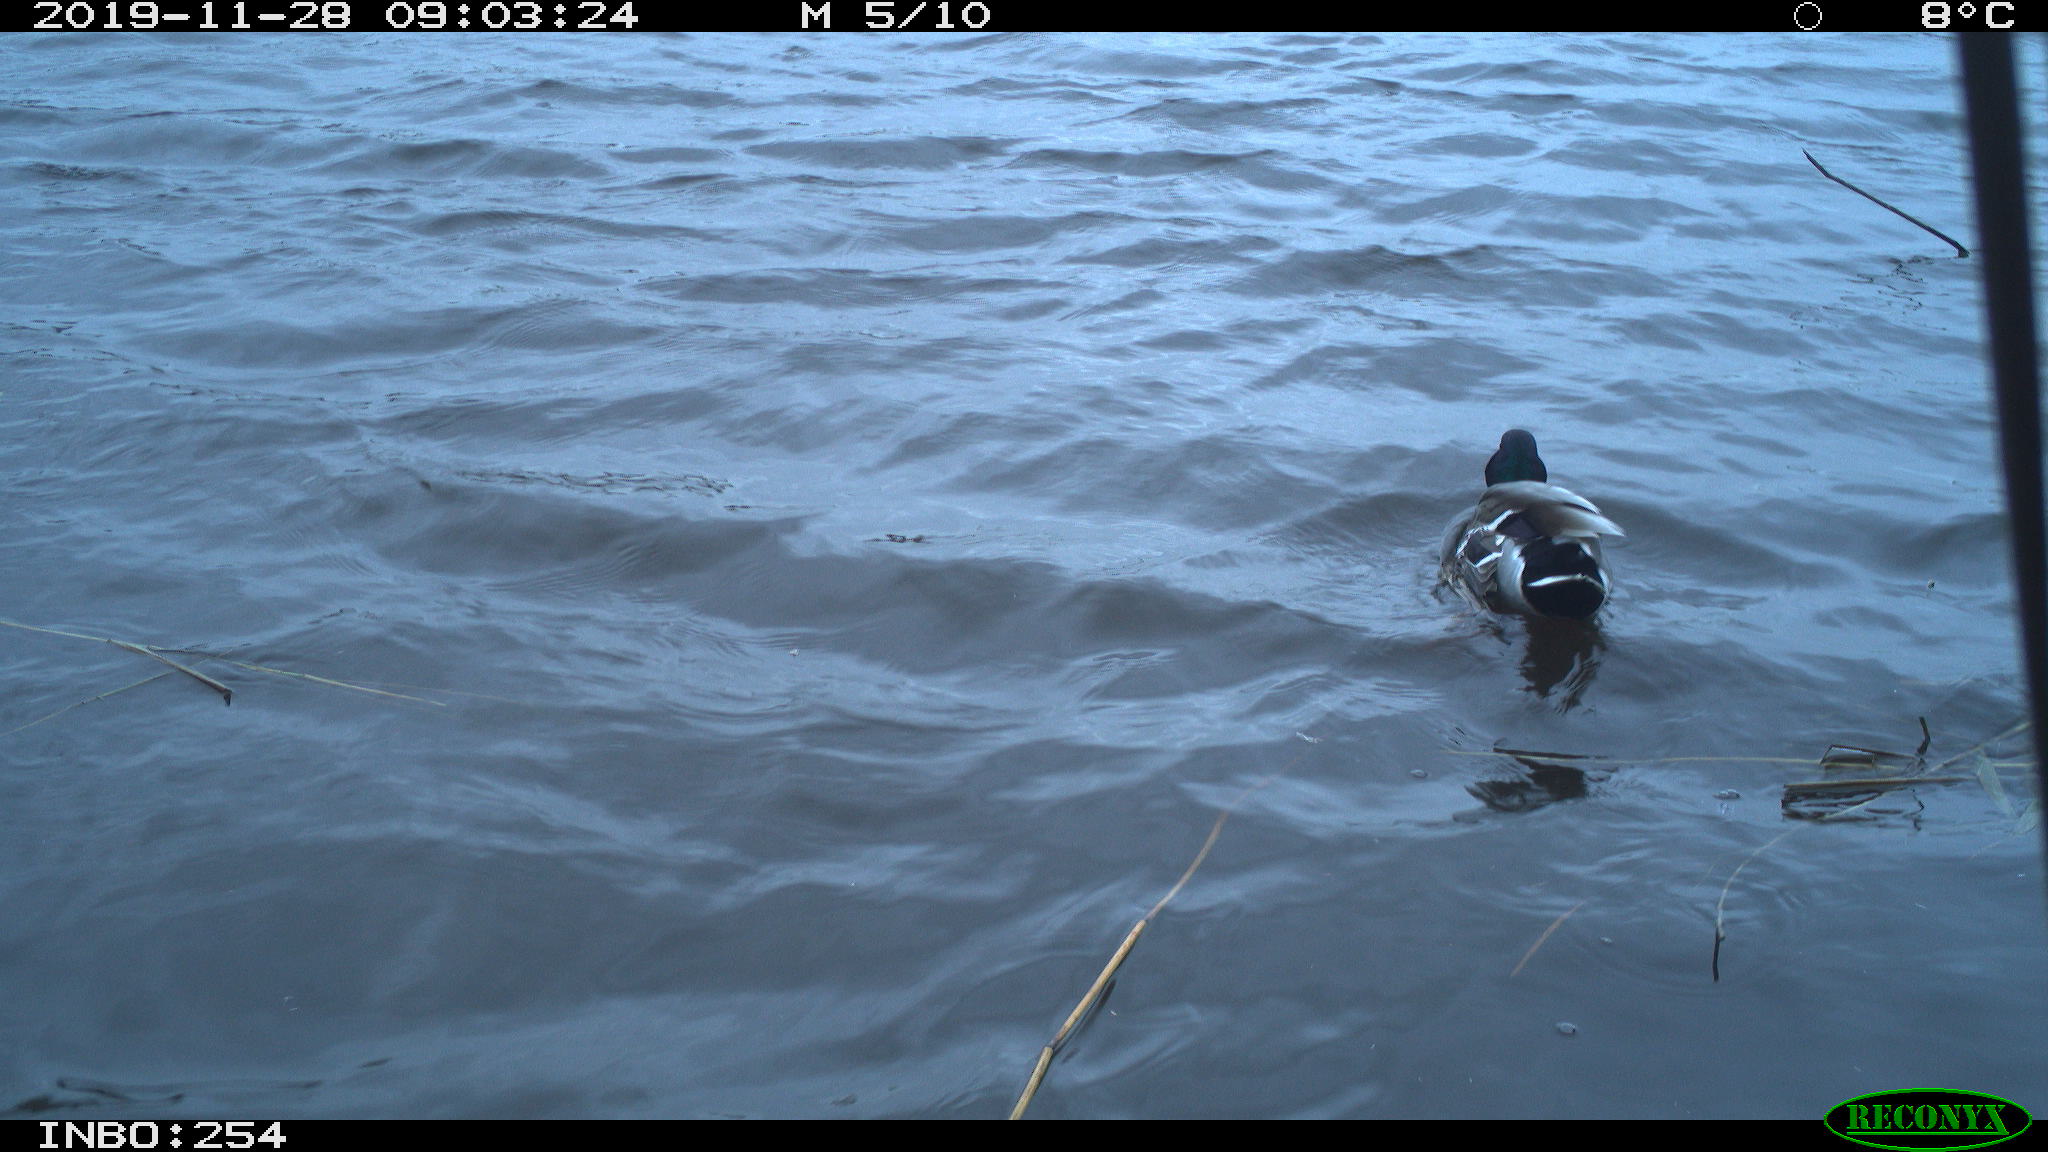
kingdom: Animalia
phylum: Chordata
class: Aves
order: Anseriformes
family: Anatidae
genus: Anas
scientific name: Anas platyrhynchos
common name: Mallard
